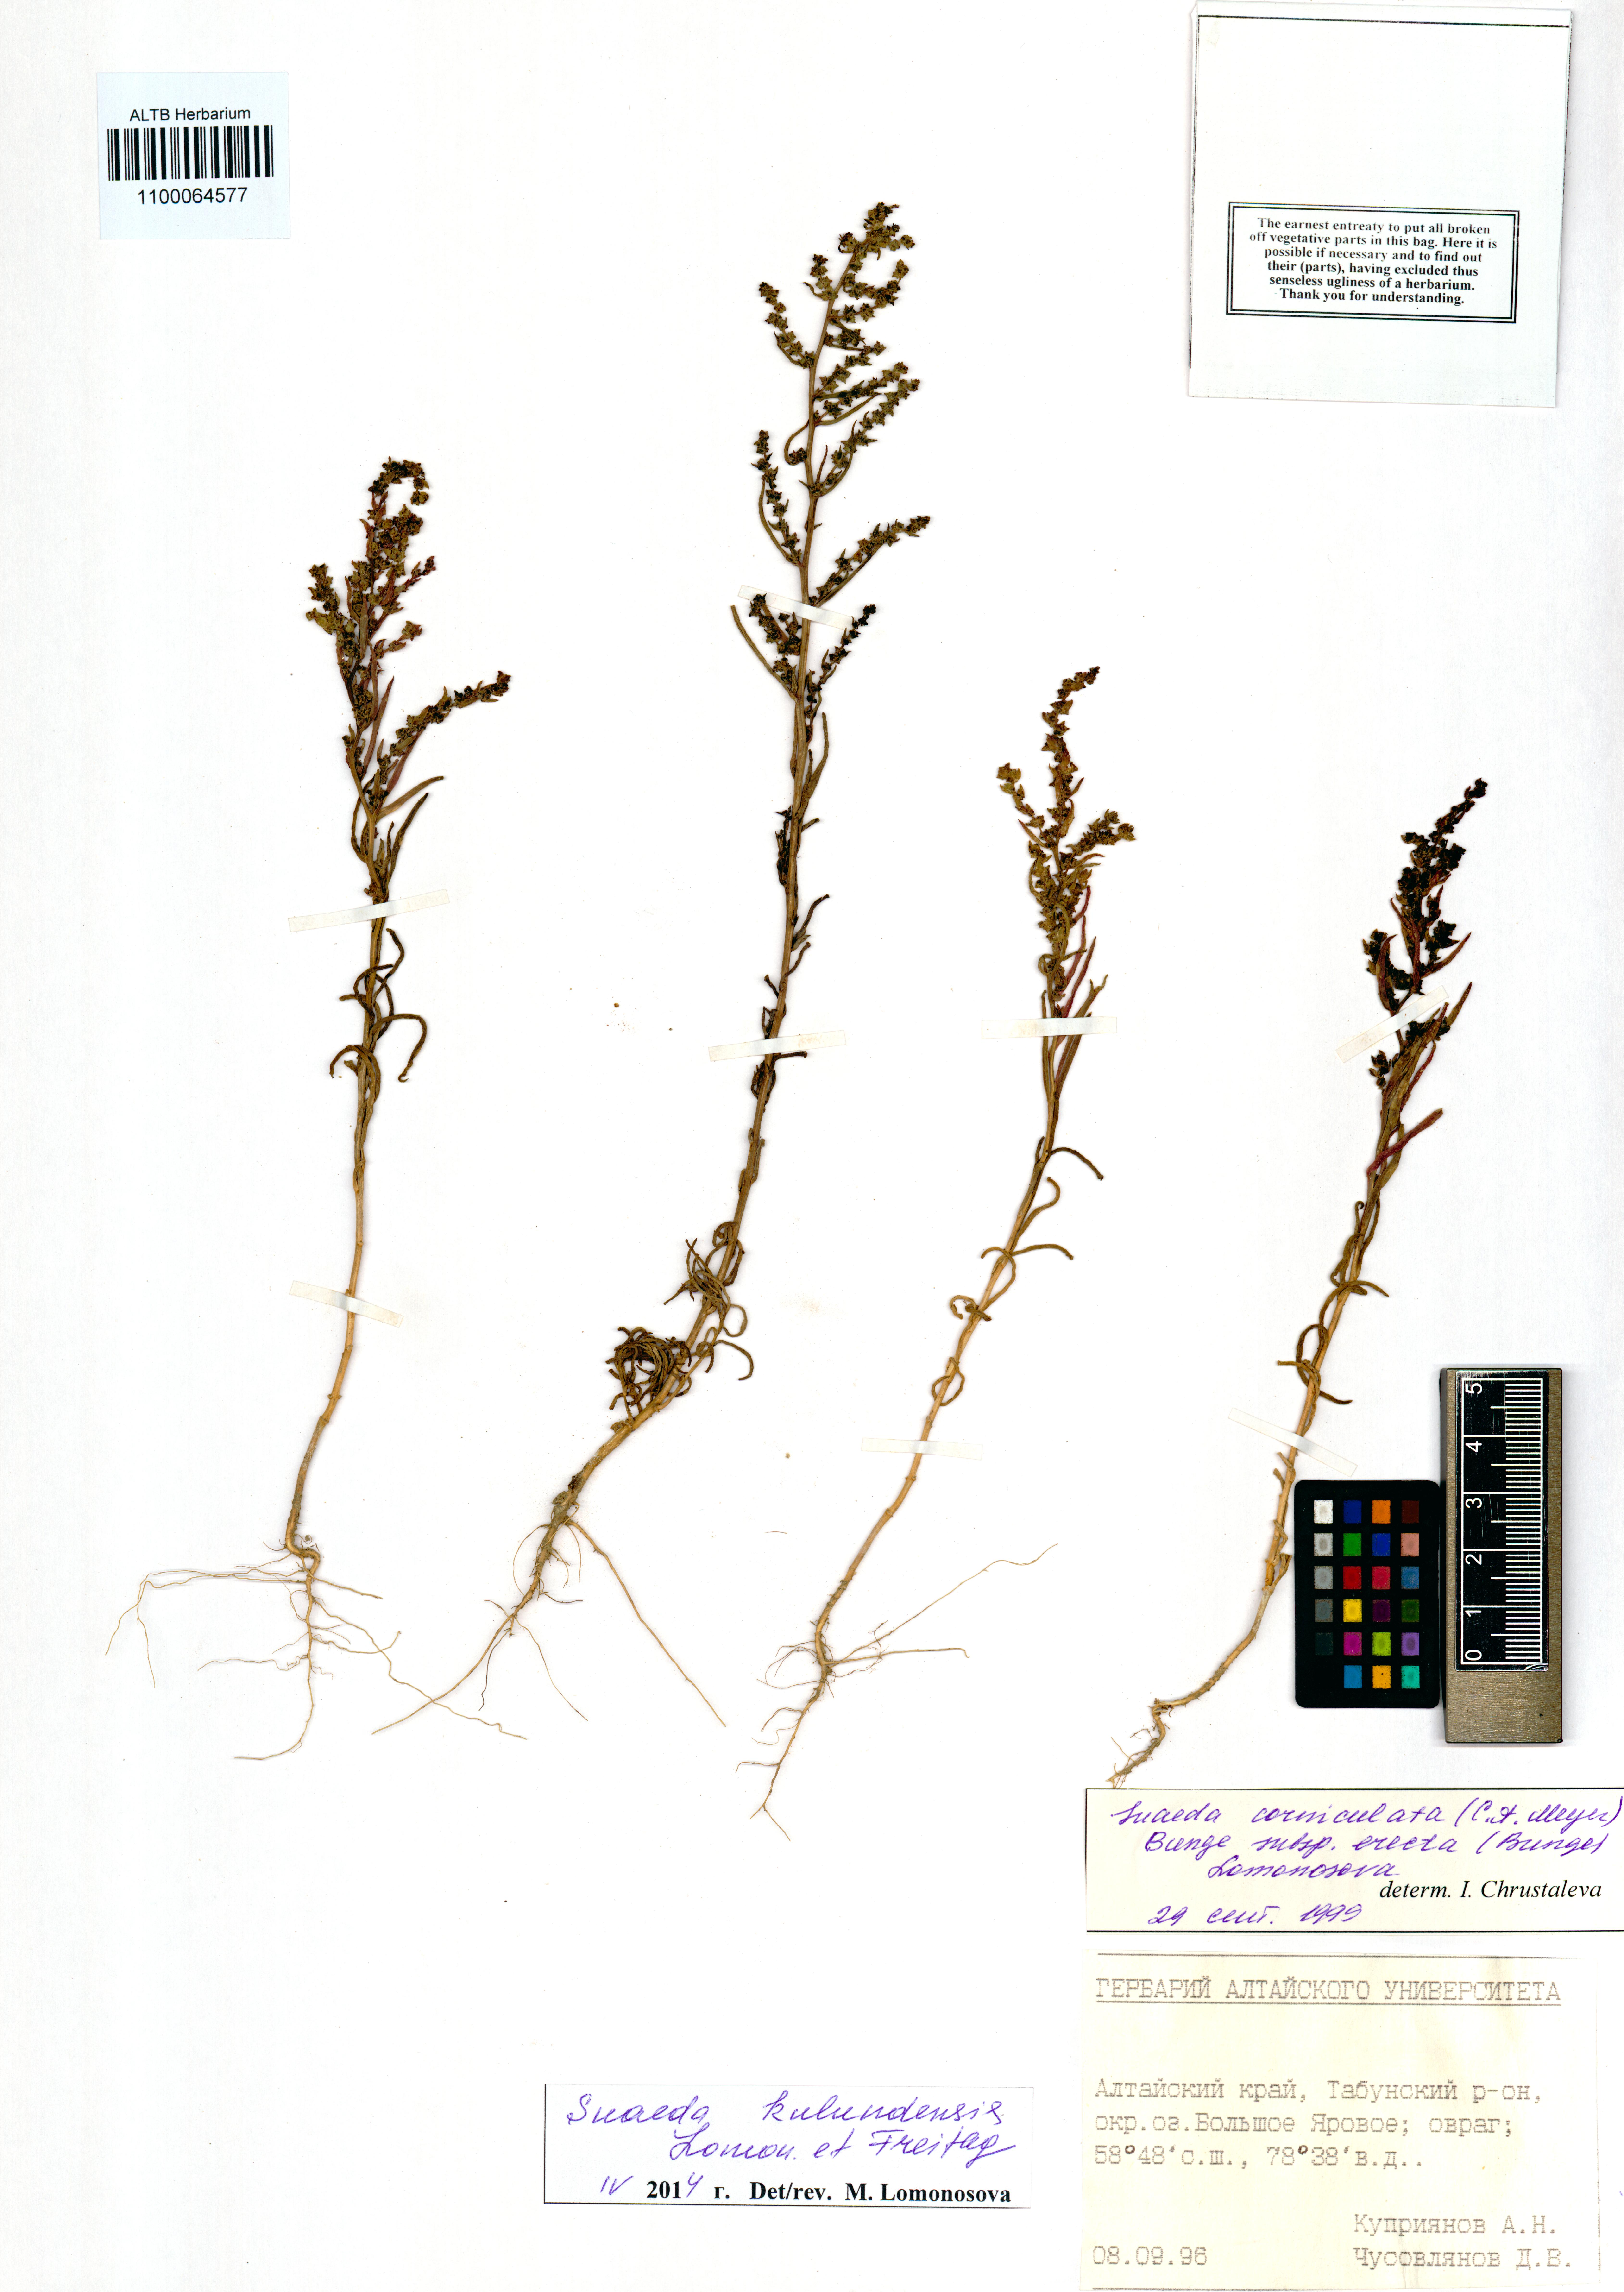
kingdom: Plantae
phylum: Tracheophyta
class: Magnoliopsida
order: Caryophyllales
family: Amaranthaceae
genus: Suaeda
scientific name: Suaeda kulundensis
